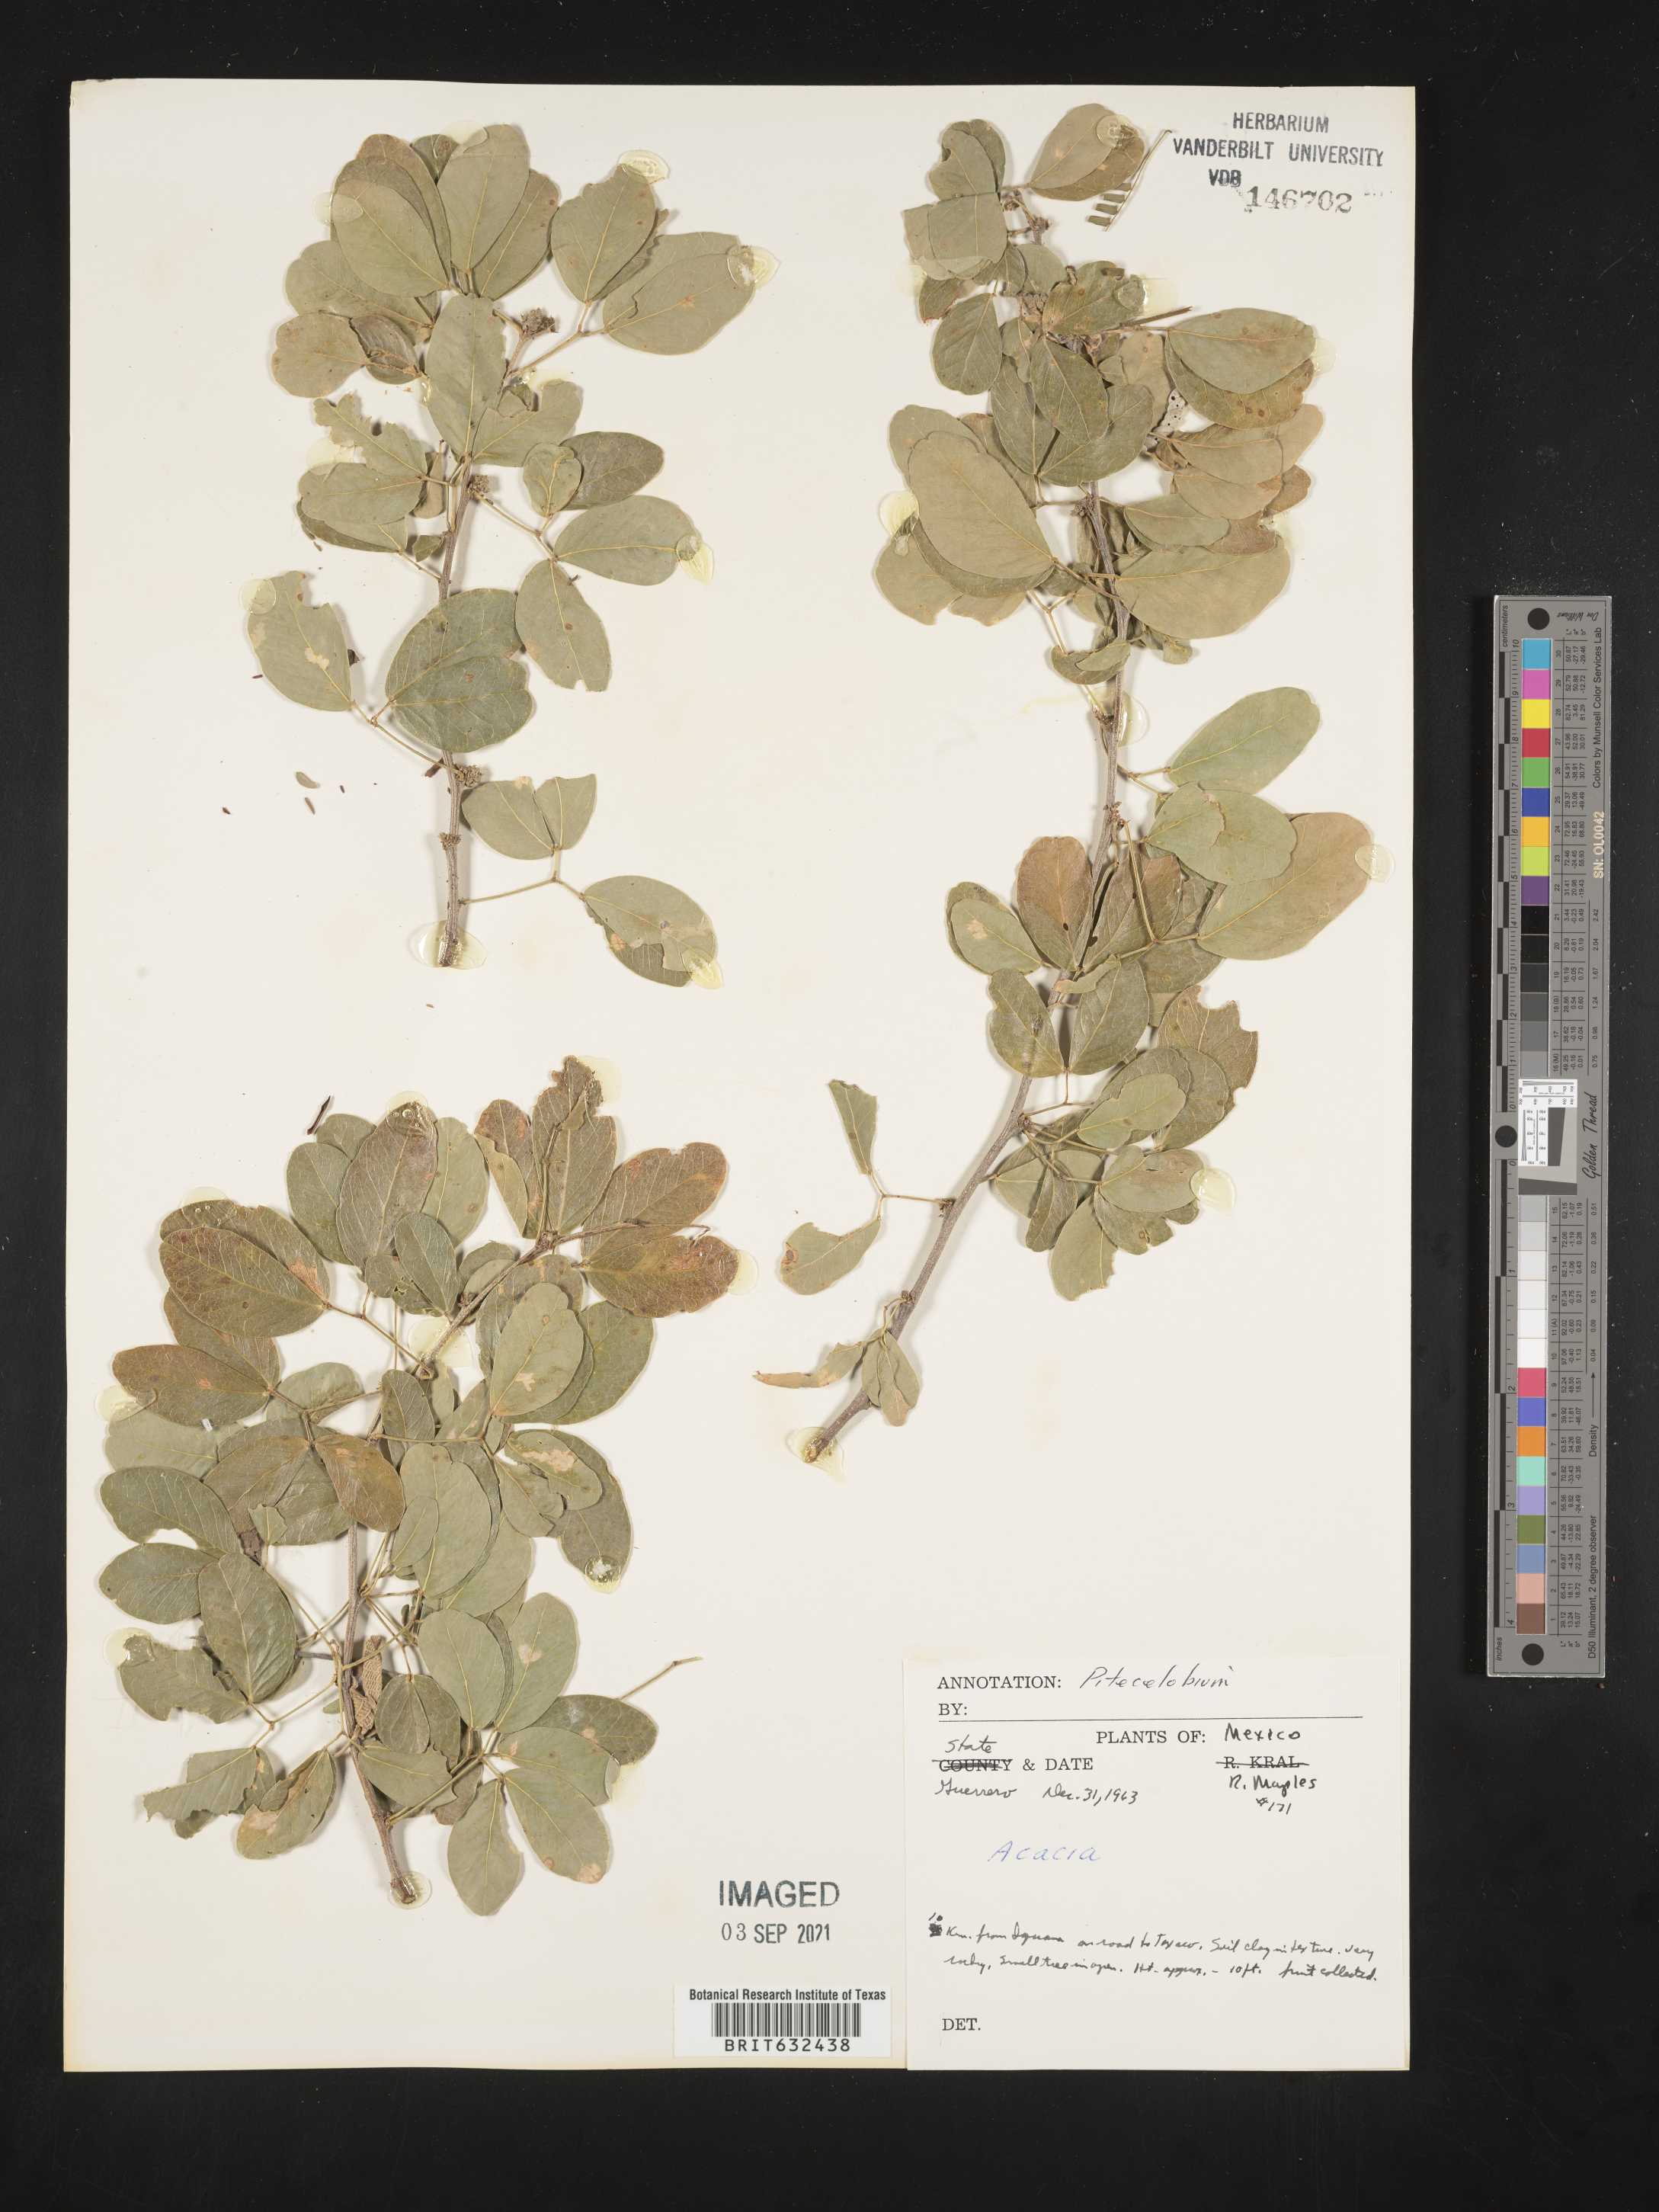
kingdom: Plantae
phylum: Tracheophyta
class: Magnoliopsida
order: Fabales
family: Fabaceae
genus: Pithecellobium
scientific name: Pithecellobium
